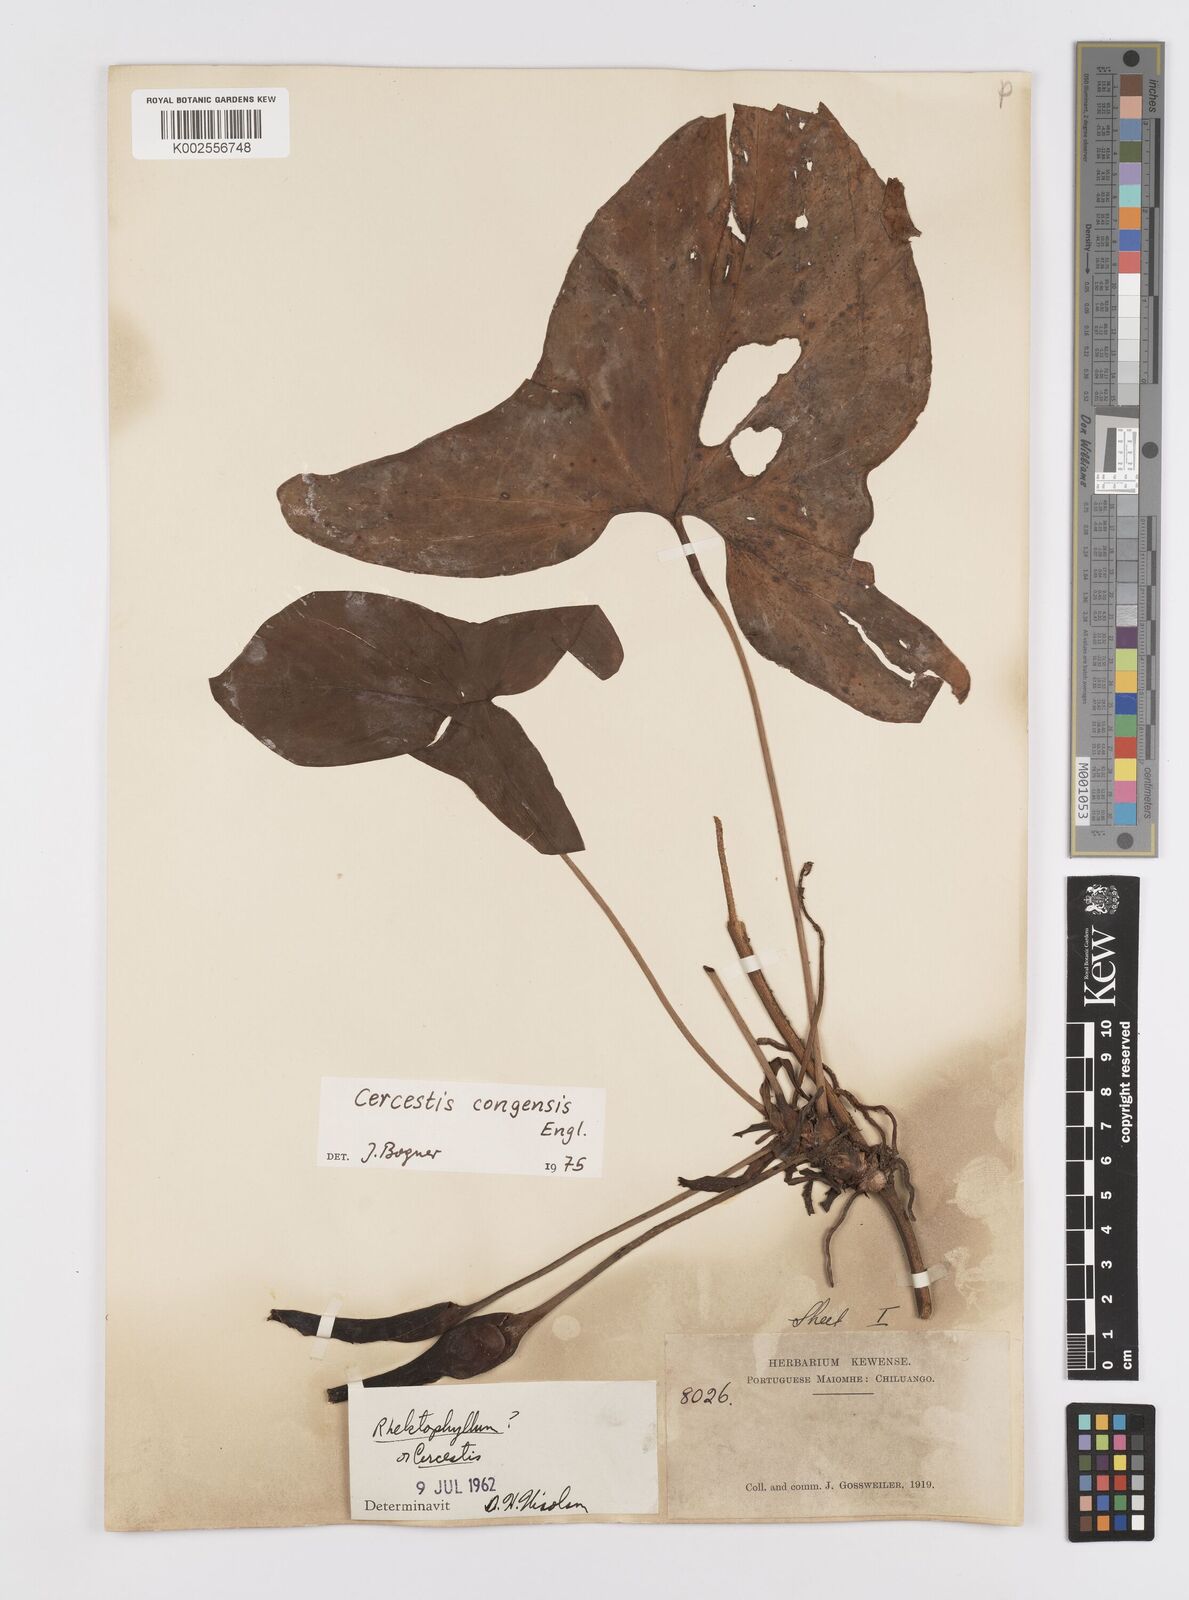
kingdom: Plantae
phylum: Tracheophyta
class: Liliopsida
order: Alismatales
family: Araceae
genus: Cercestis
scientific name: Cercestis congoensis
